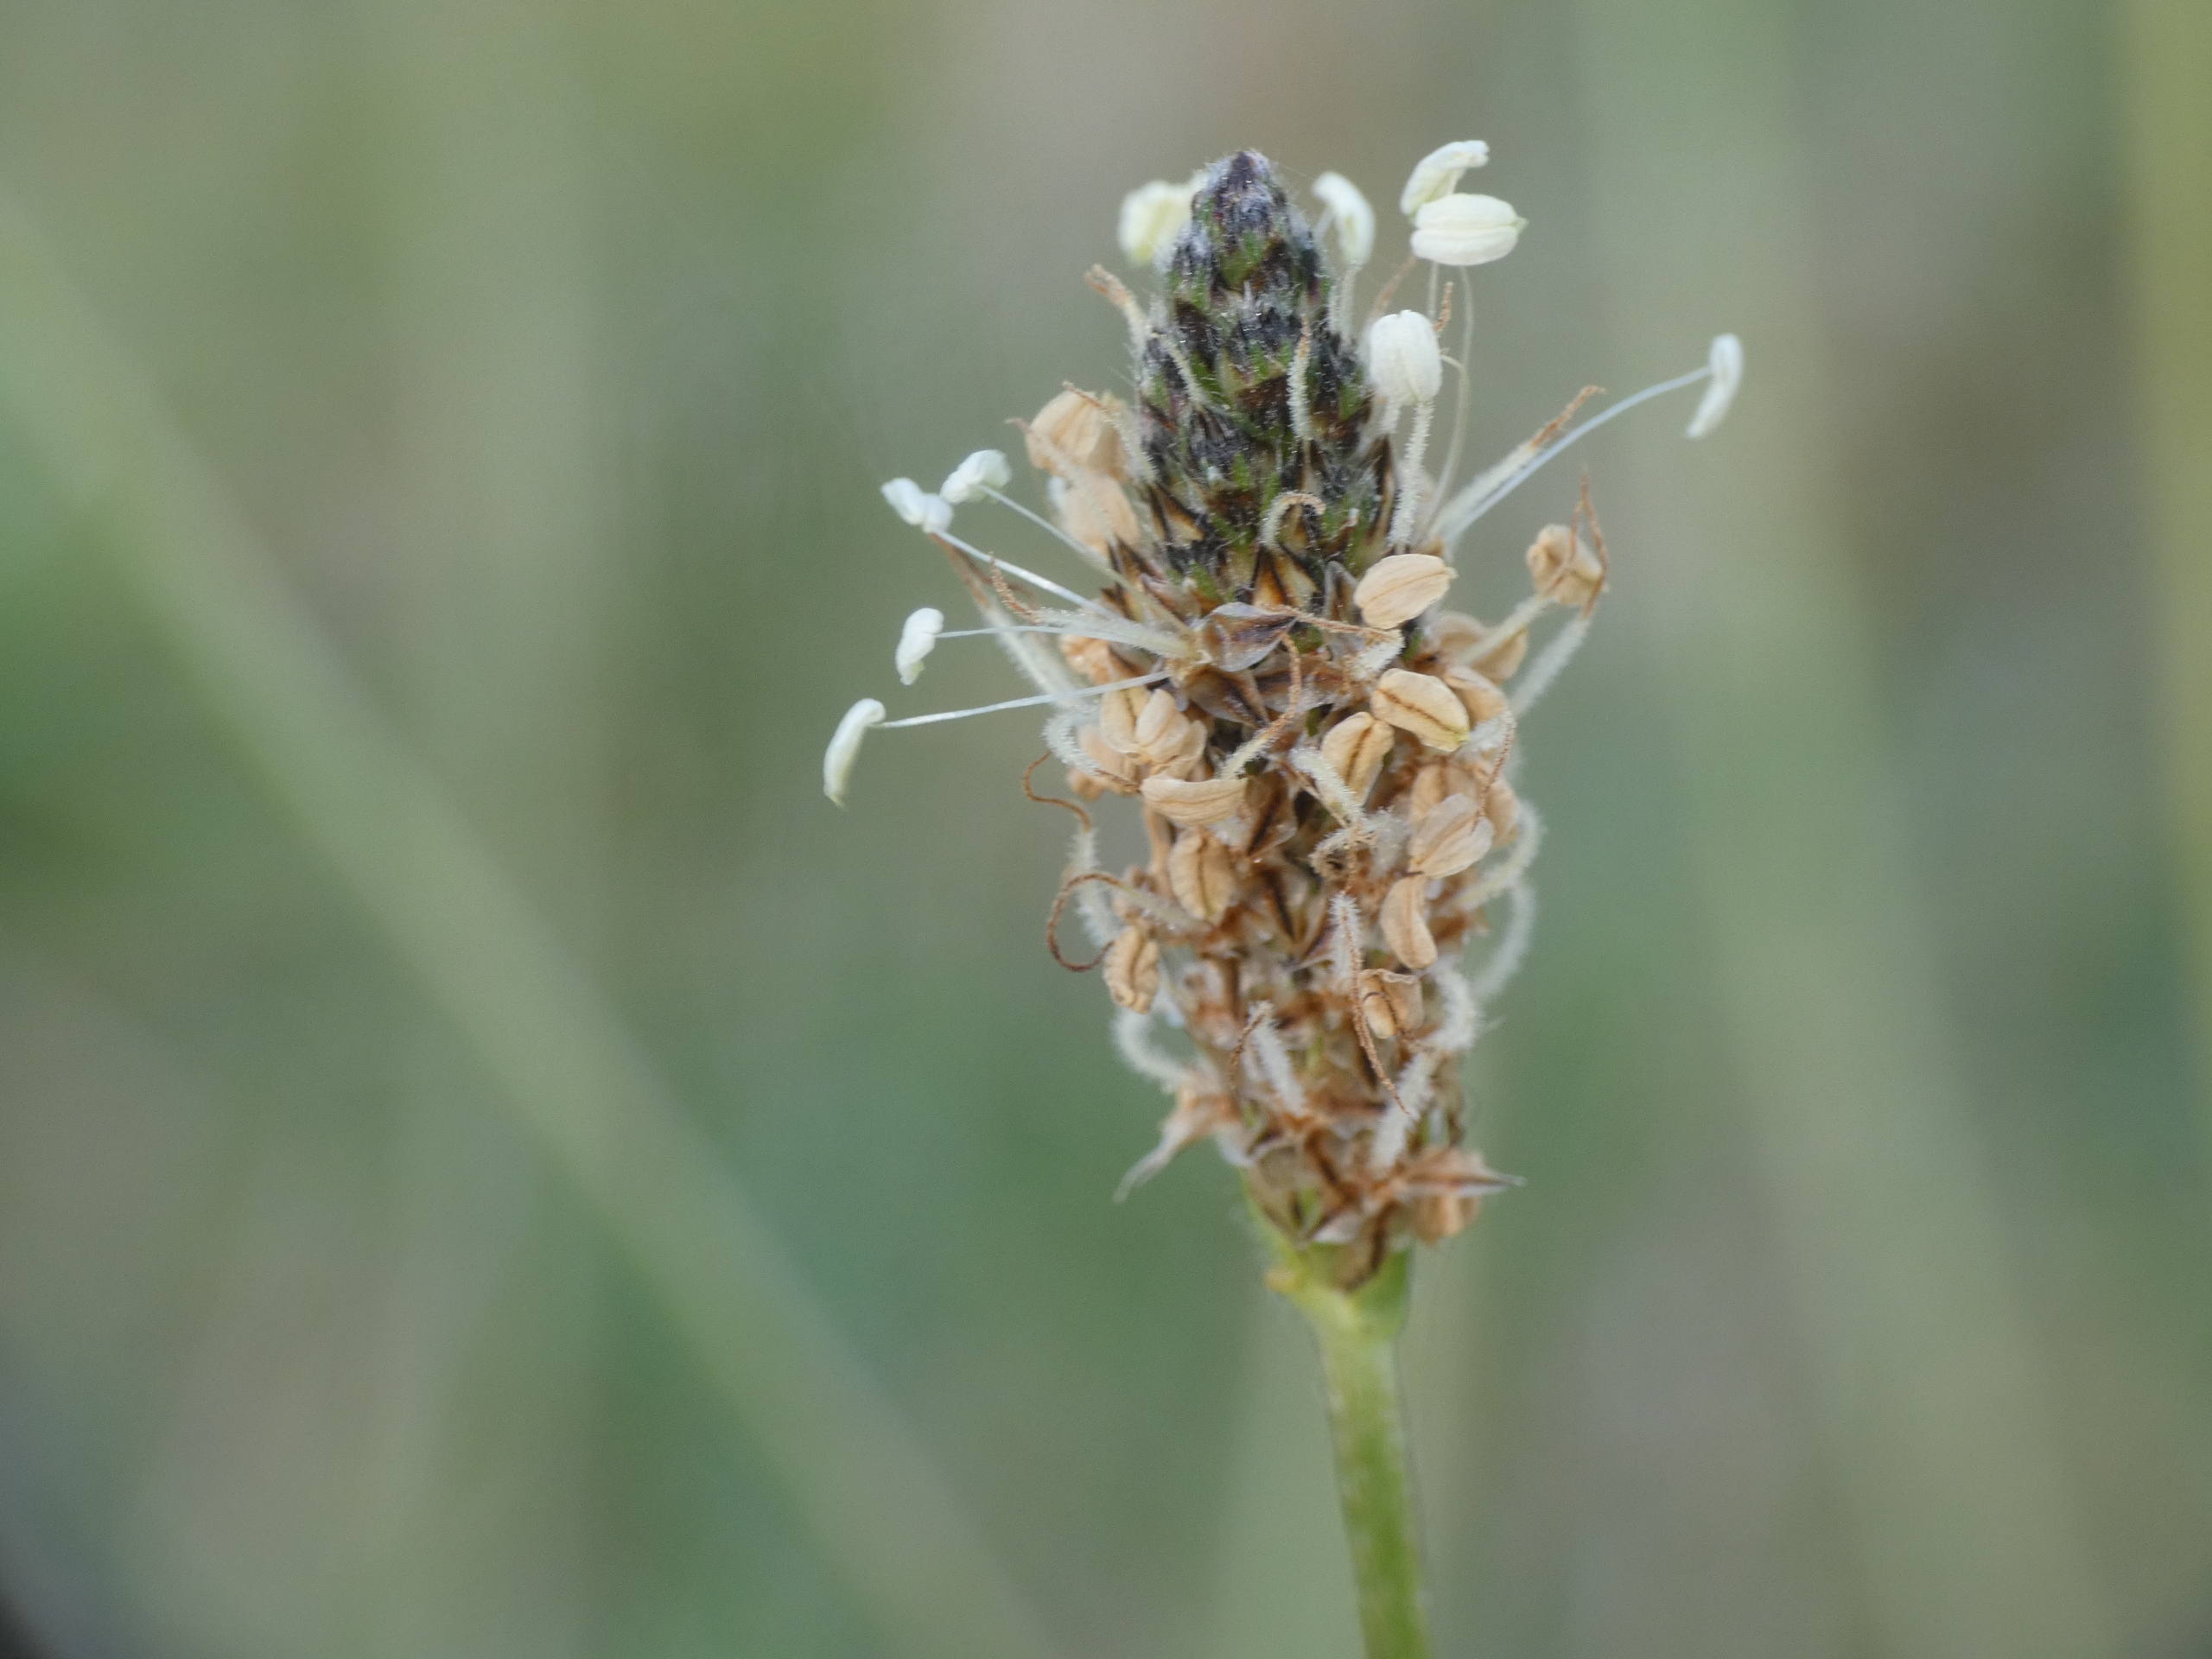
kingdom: Plantae
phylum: Tracheophyta
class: Magnoliopsida
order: Lamiales
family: Plantaginaceae
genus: Plantago
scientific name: Plantago lanceolata
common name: Lancet-vejbred
